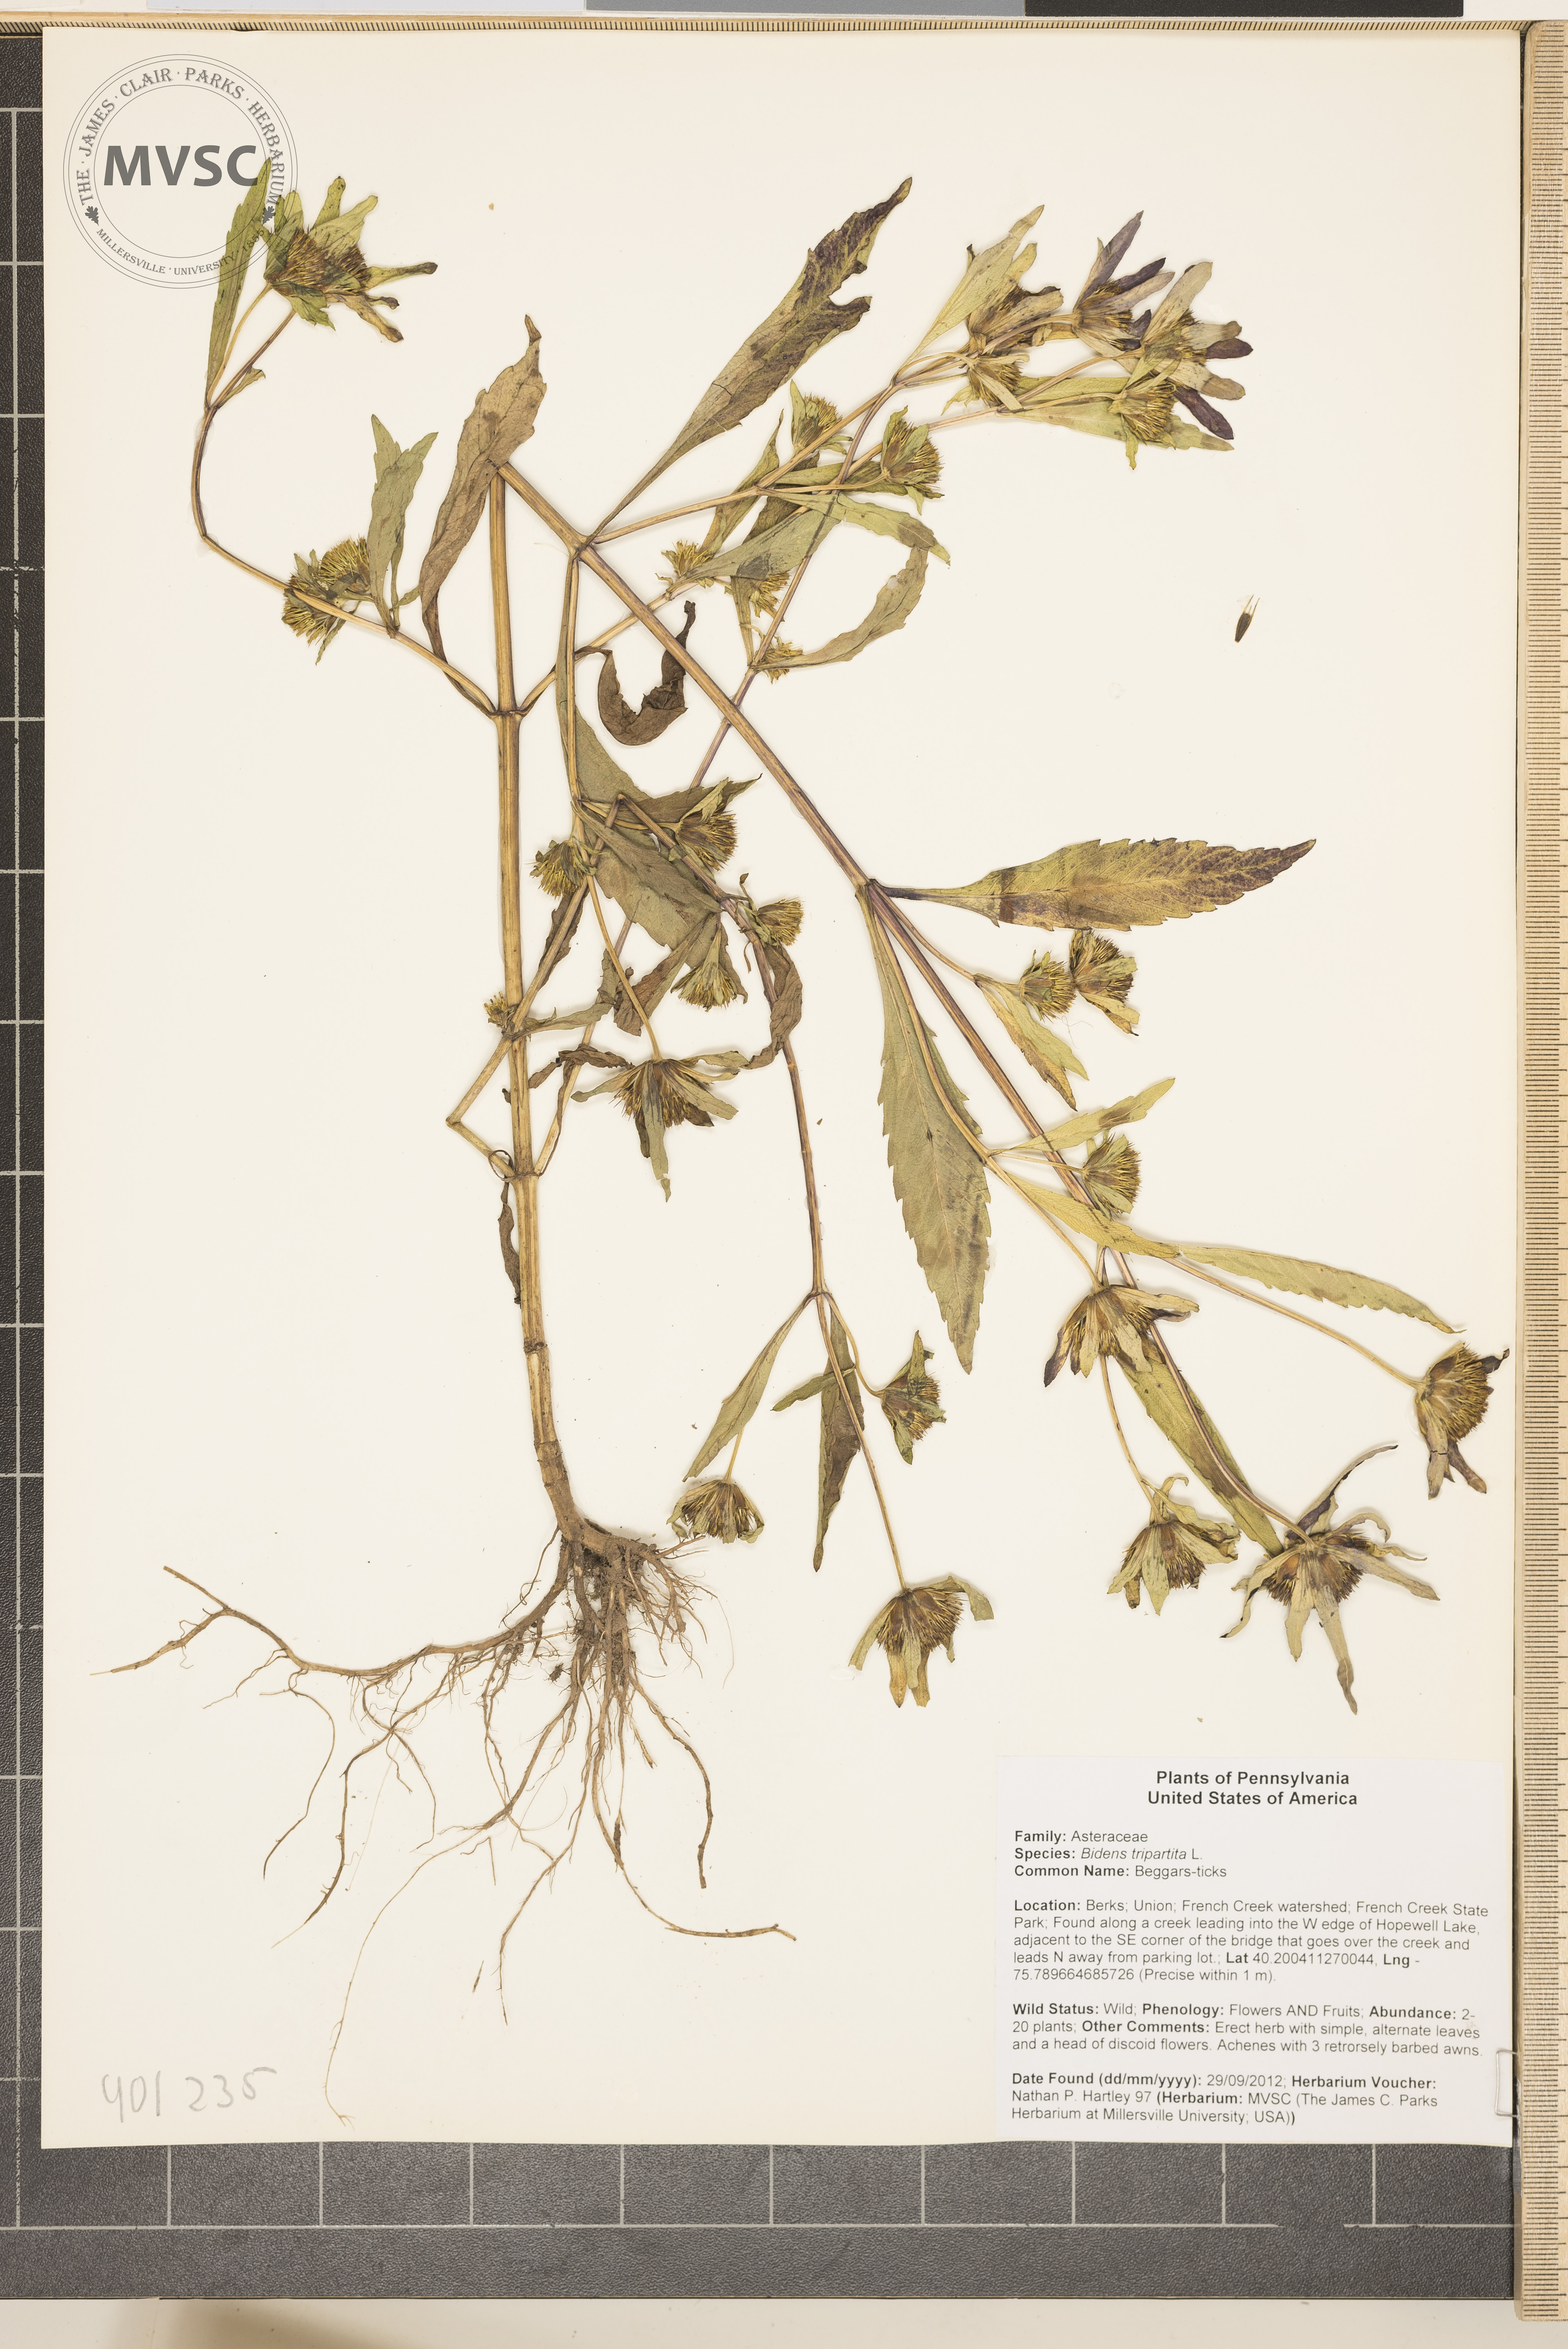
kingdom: Plantae
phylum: Tracheophyta
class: Magnoliopsida
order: Asterales
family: Asteraceae
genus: Bidens
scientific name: Bidens tripartita
